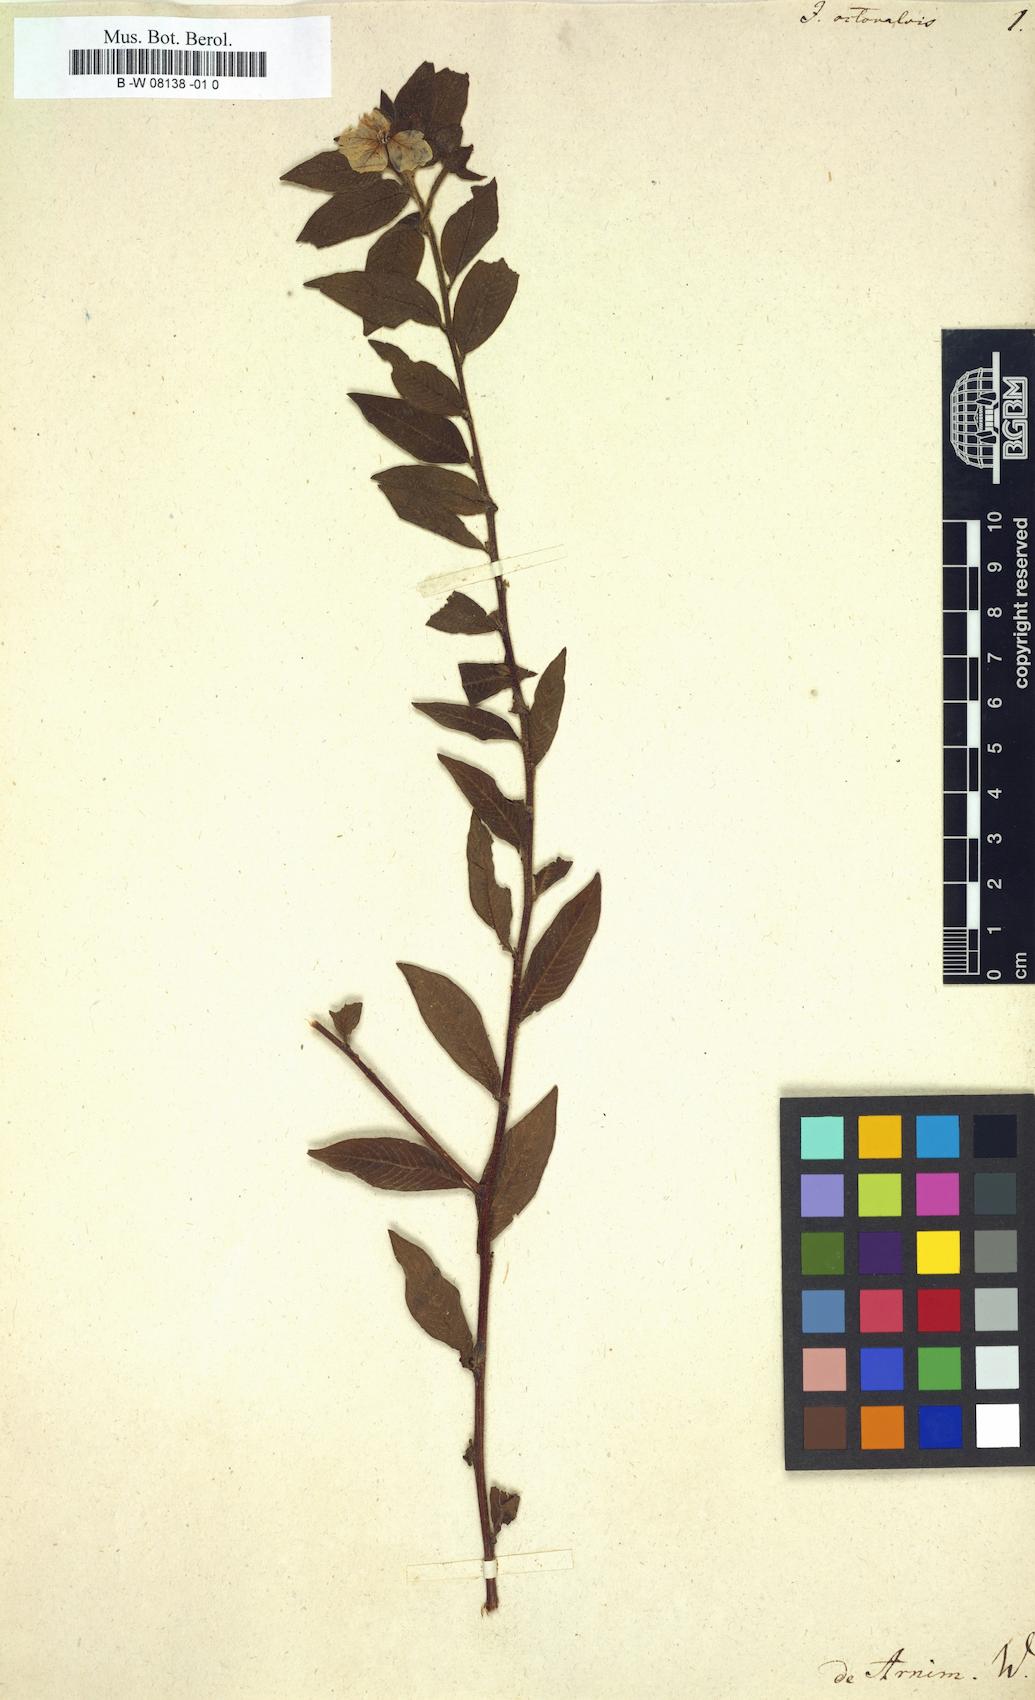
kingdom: Plantae
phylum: Tracheophyta
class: Magnoliopsida
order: Myrtales
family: Onagraceae
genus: Ludwigia
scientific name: Ludwigia octovalvis
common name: Water-primrose
